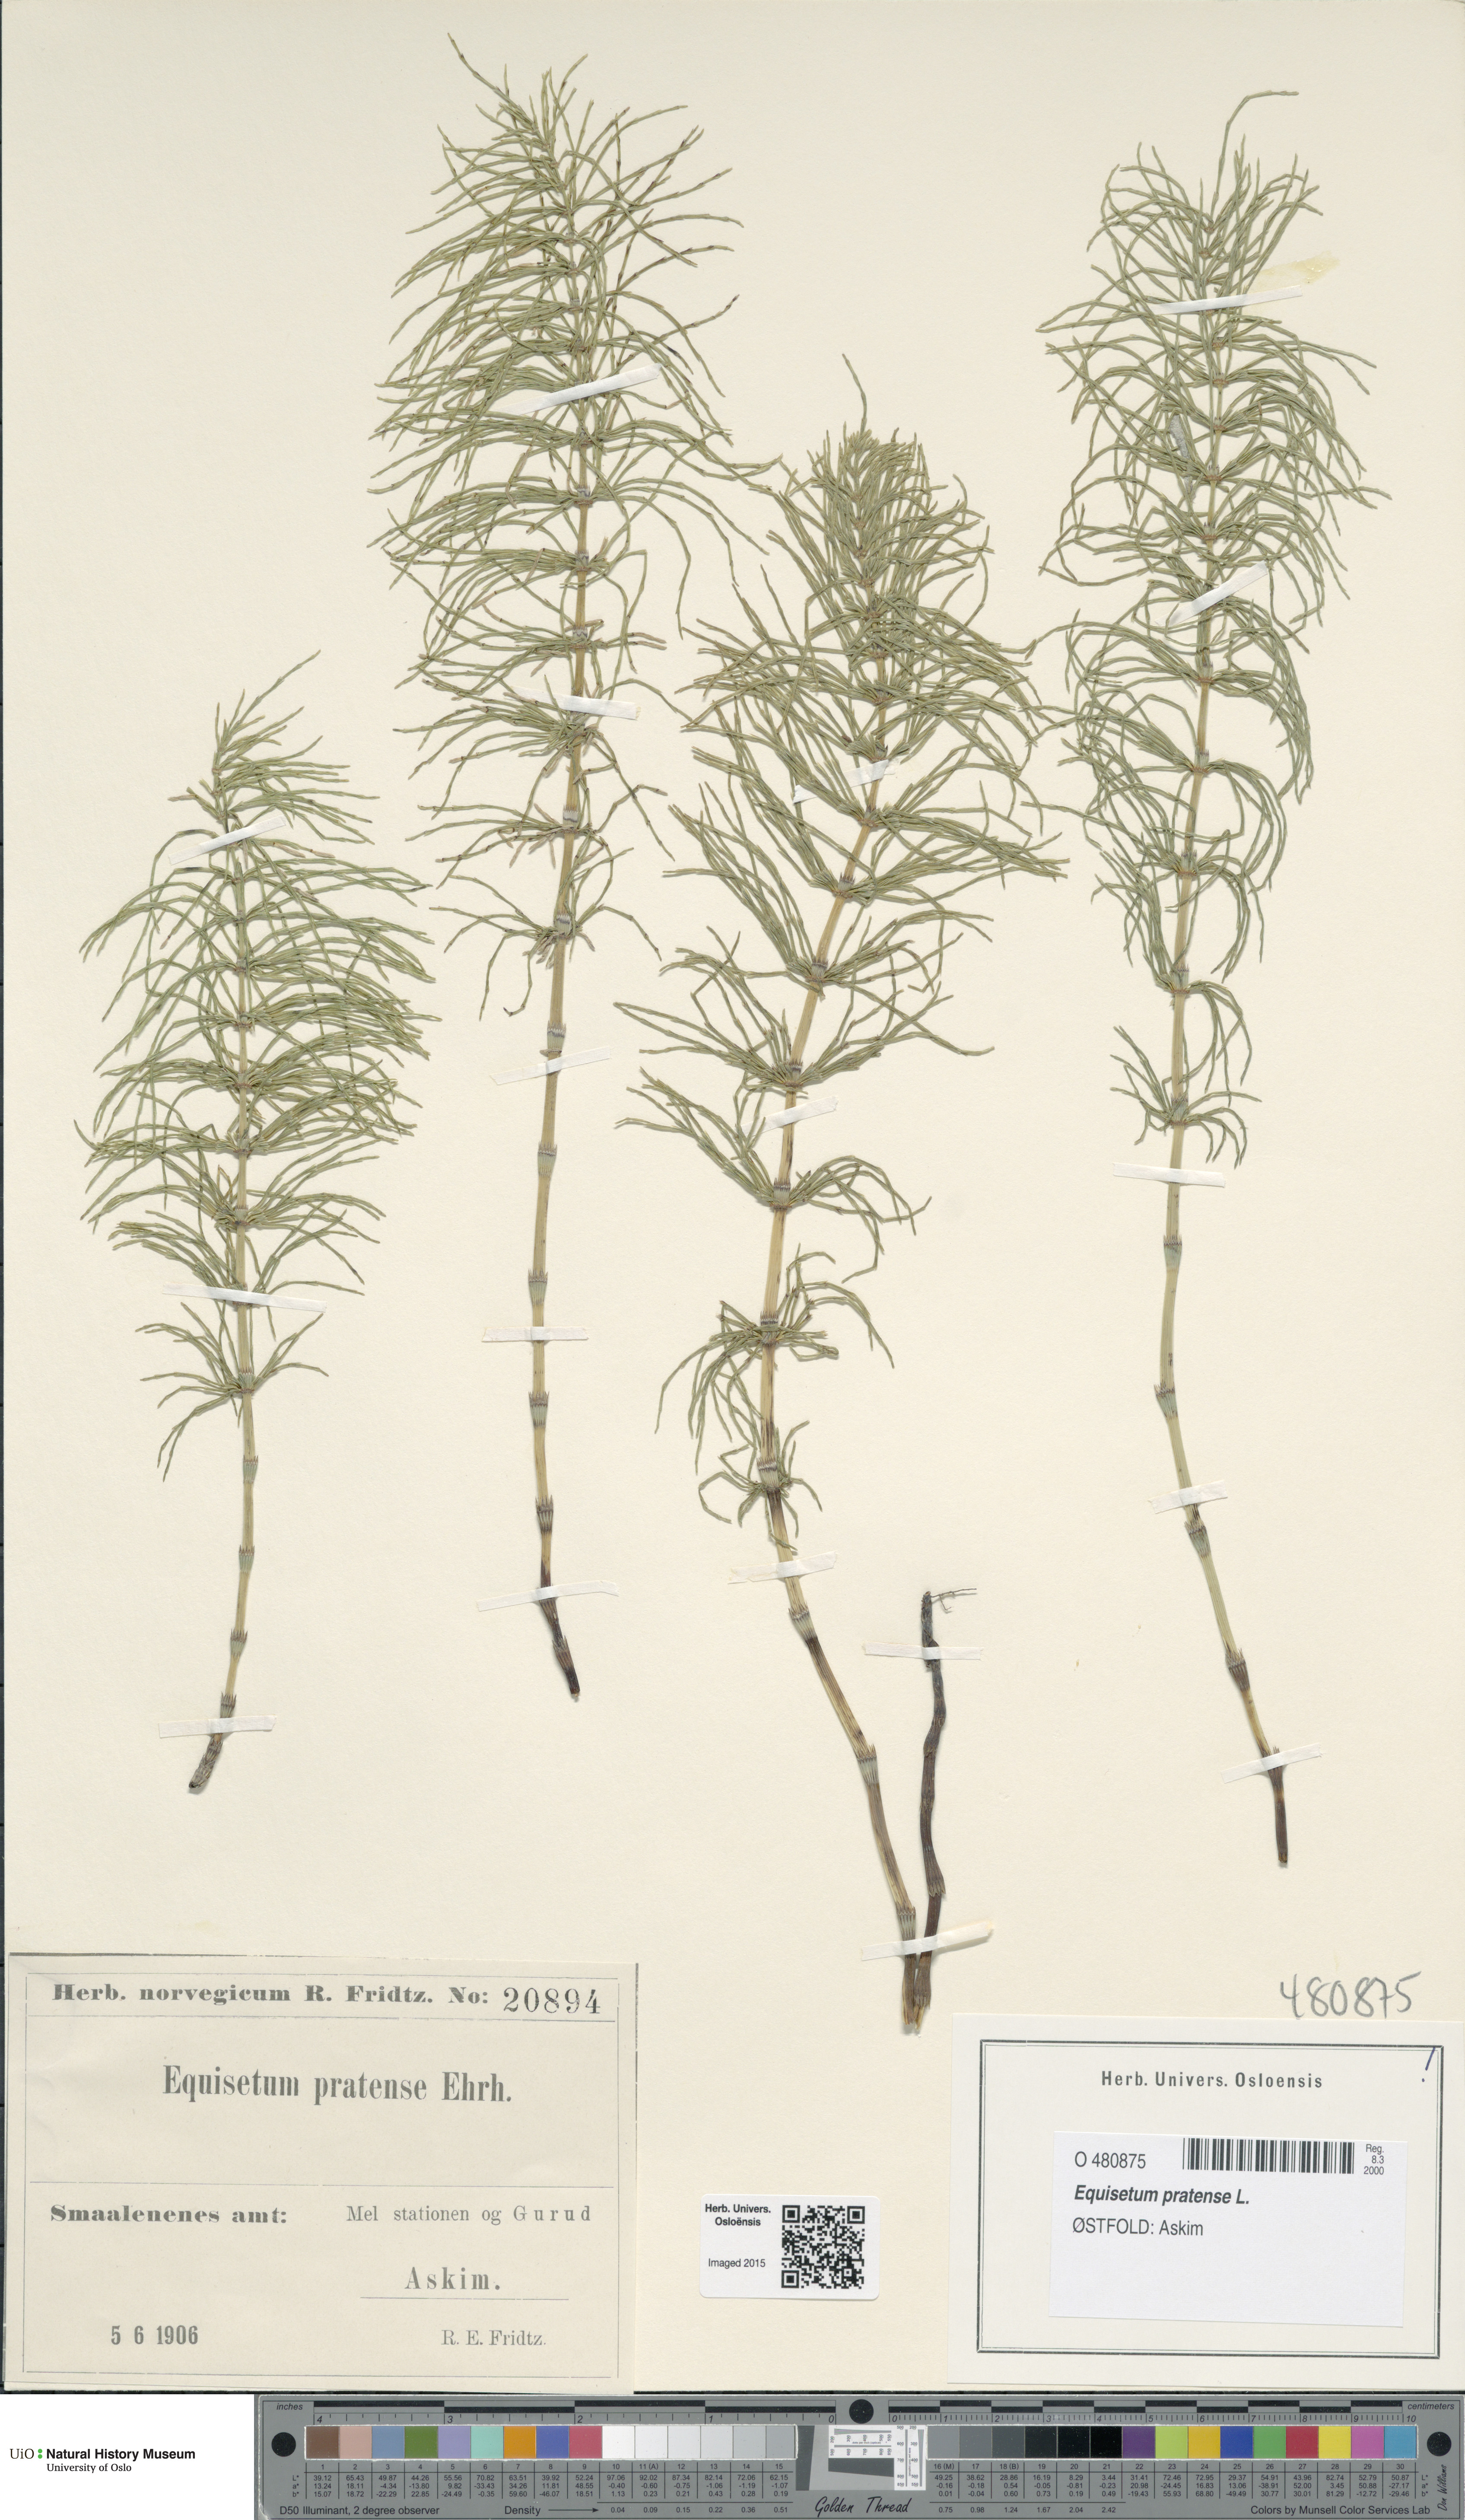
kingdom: Plantae
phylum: Tracheophyta
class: Polypodiopsida
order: Equisetales
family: Equisetaceae
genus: Equisetum
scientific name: Equisetum pratense
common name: Meadow horsetail
